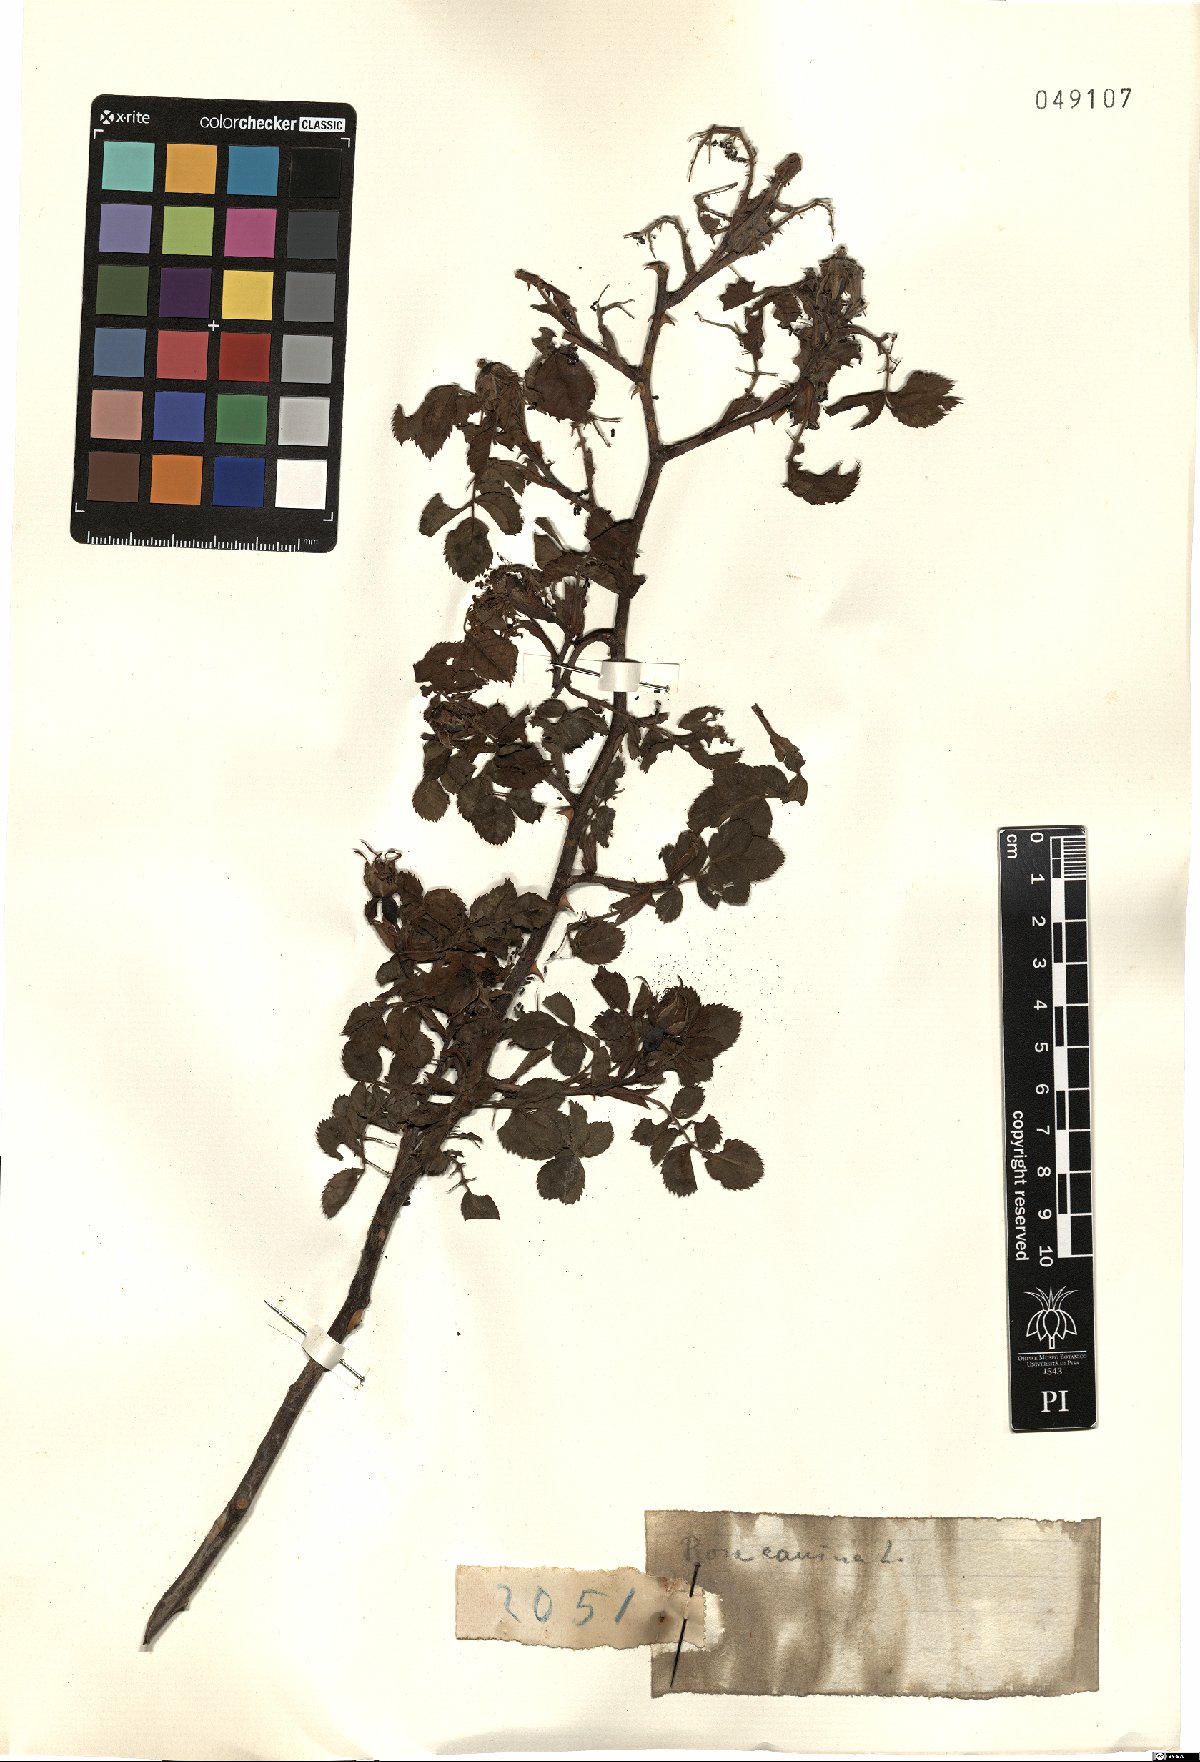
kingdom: Plantae
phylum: Tracheophyta
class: Magnoliopsida
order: Rosales
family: Rosaceae
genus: Rosa
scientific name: Rosa canina
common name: Dog rose
